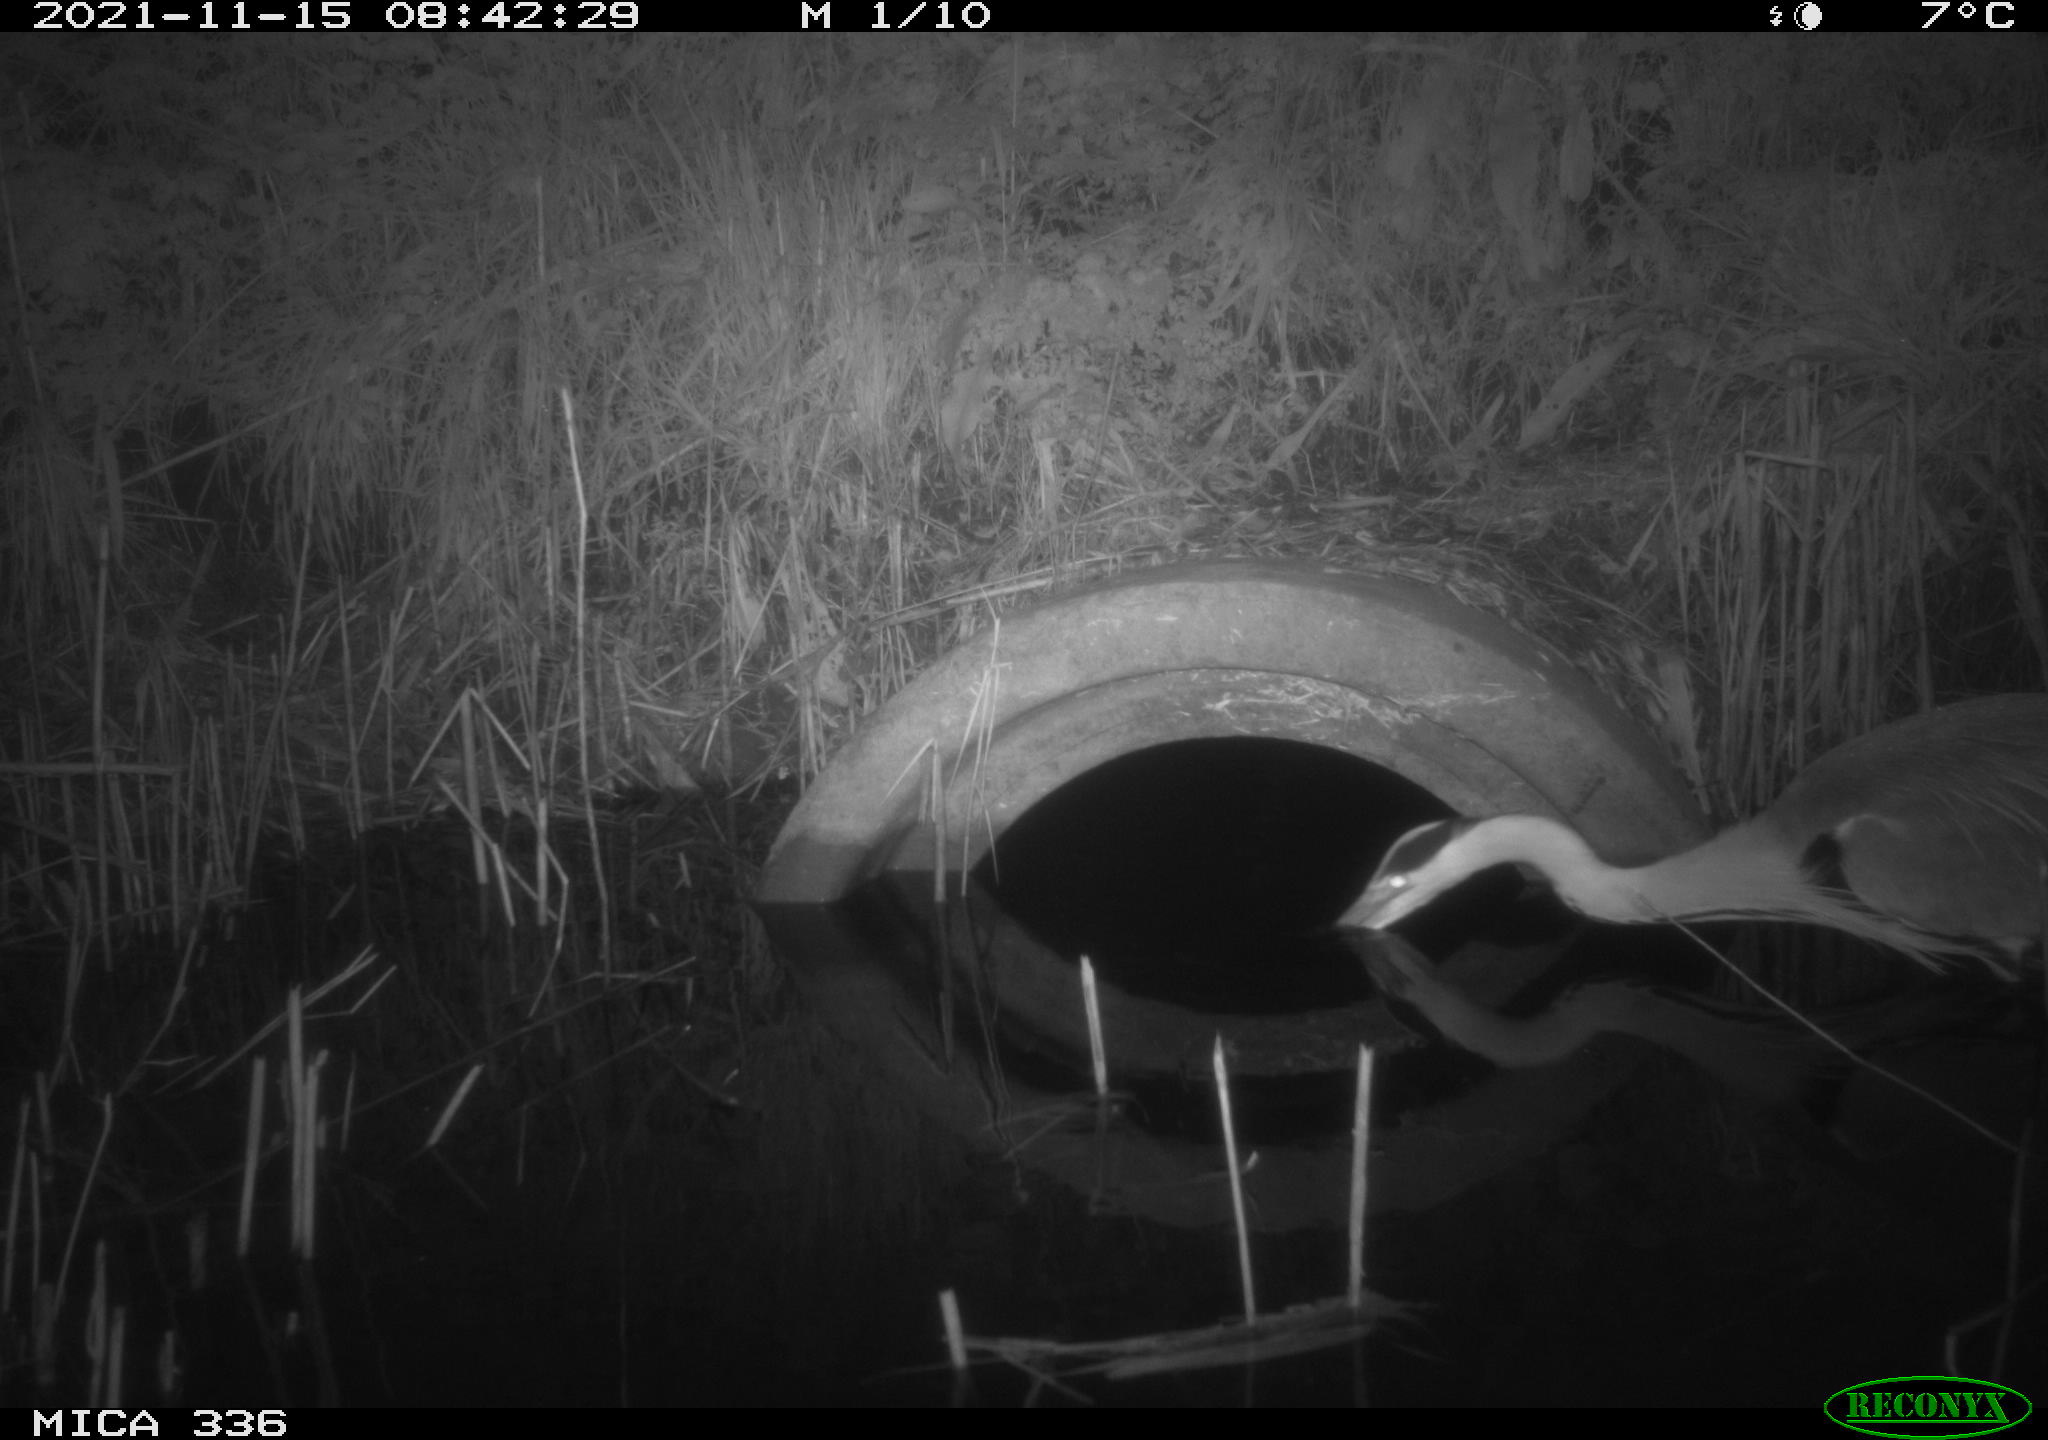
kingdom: Animalia
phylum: Chordata
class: Aves
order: Pelecaniformes
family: Ardeidae
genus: Ardea
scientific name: Ardea cinerea
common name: Grey heron
